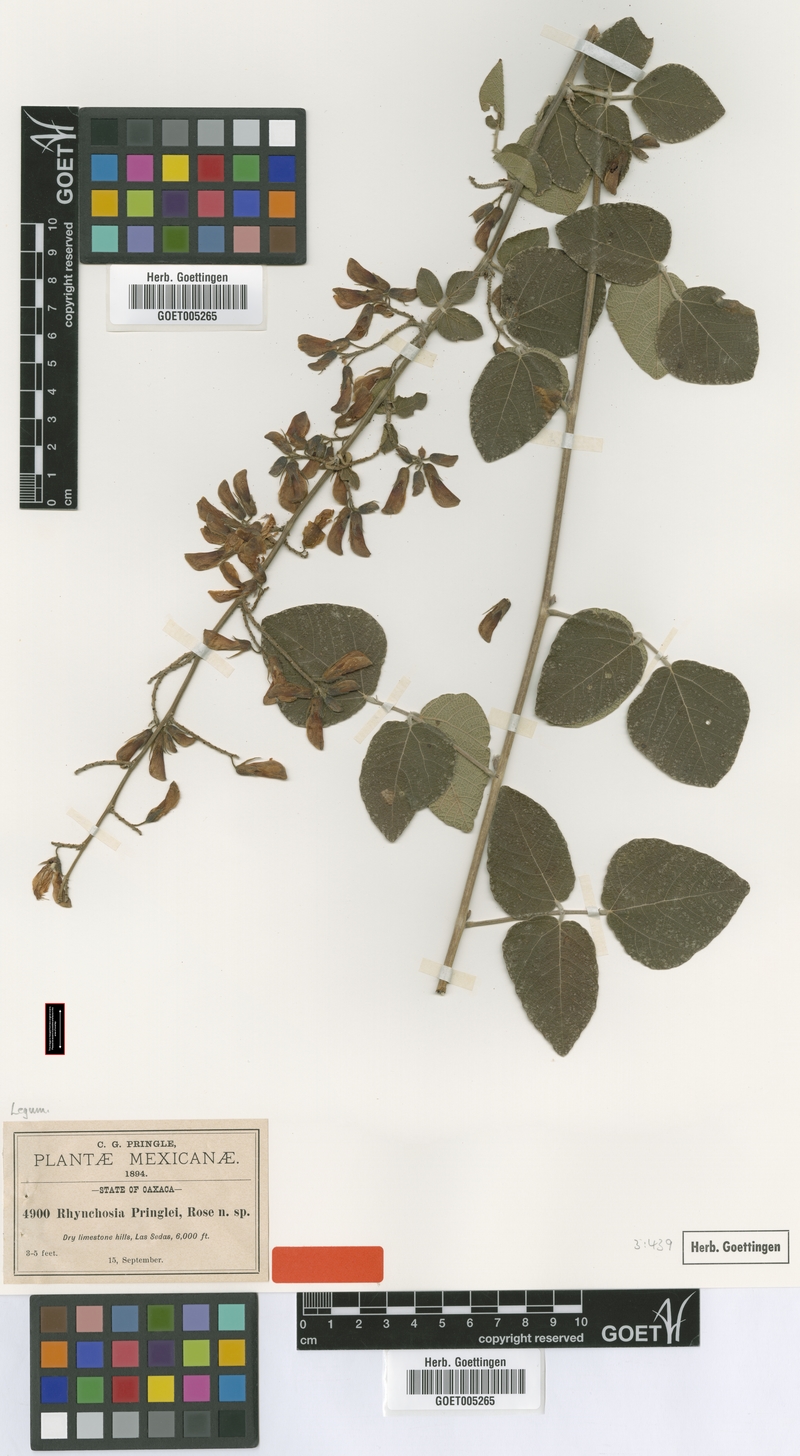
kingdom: Plantae
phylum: Tracheophyta
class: Magnoliopsida
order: Fabales
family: Fabaceae
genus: Rhynchosia
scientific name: Rhynchosia pringlei
